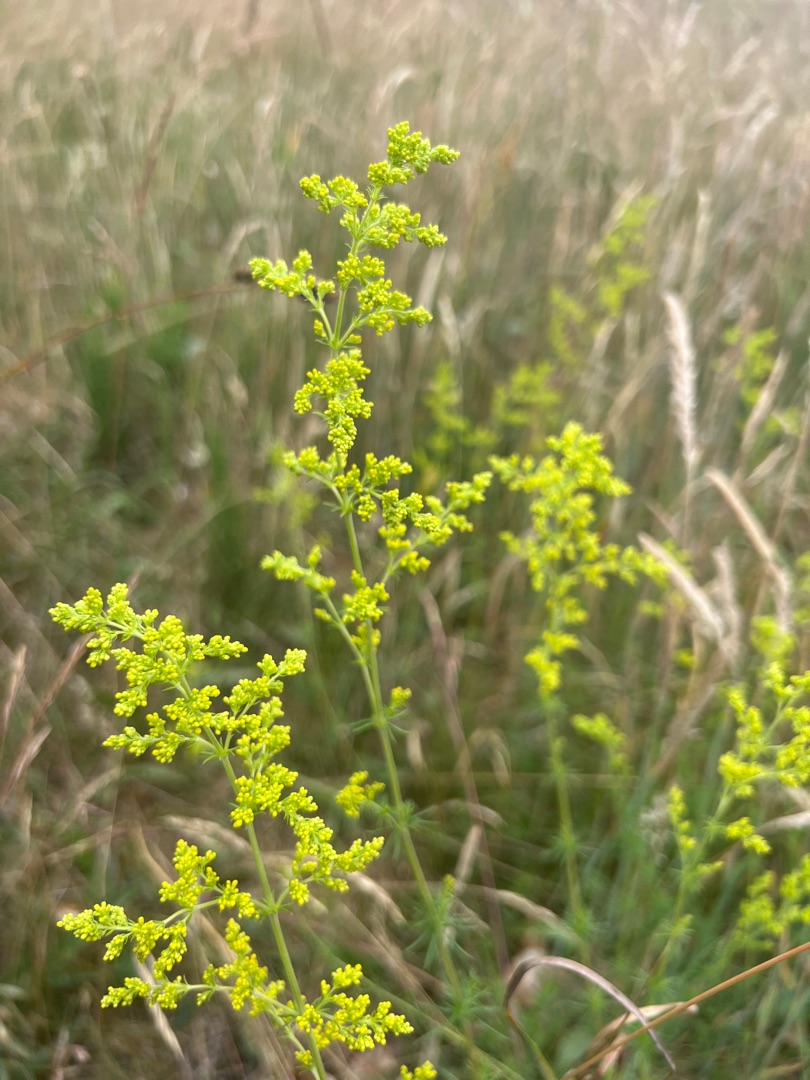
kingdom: Plantae
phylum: Tracheophyta
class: Magnoliopsida
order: Gentianales
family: Rubiaceae
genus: Galium
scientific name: Galium verum
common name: Gul snerre
